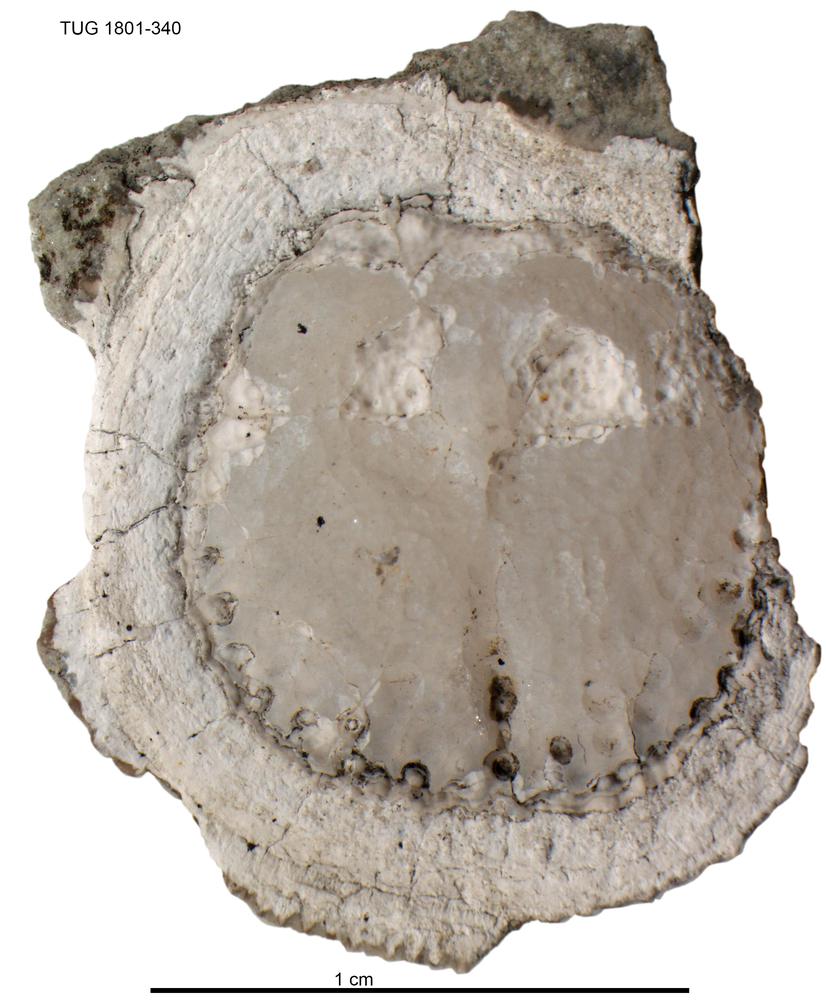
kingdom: Animalia
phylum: Brachiopoda
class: Craniata
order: Craniida
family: Craniidae
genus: Orthisocrania
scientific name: Orthisocrania
